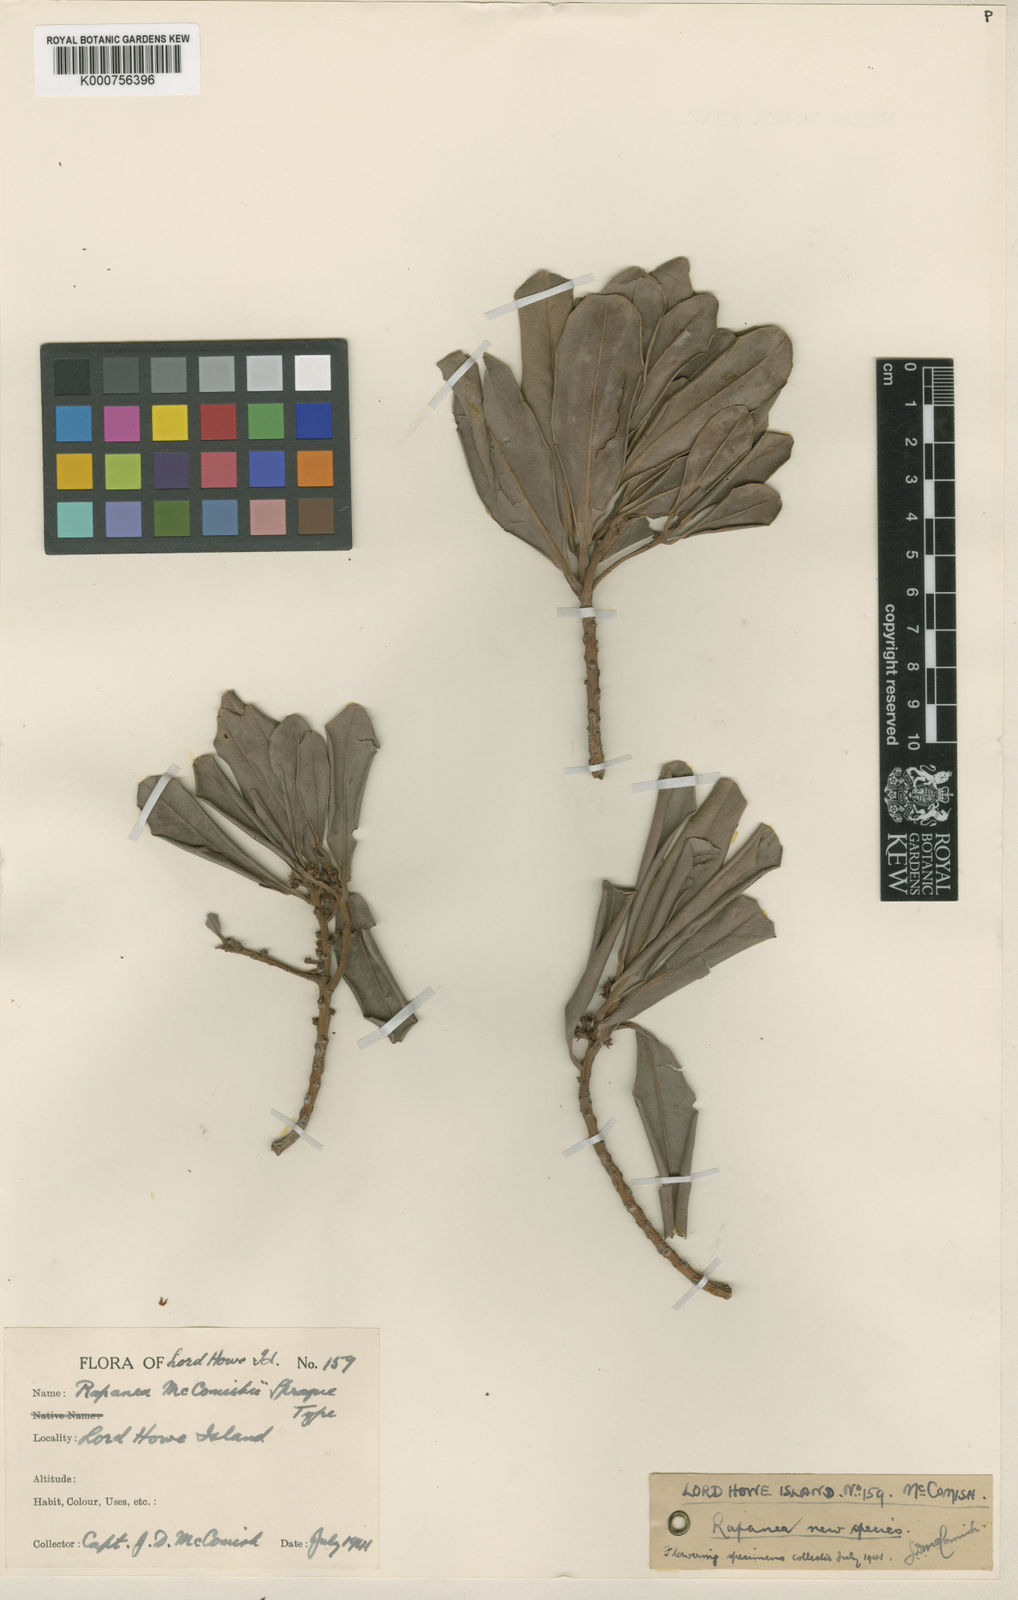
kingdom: Plantae
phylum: Tracheophyta
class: Magnoliopsida
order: Ericales
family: Primulaceae
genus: Myrsine
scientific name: Myrsine mccomishii
